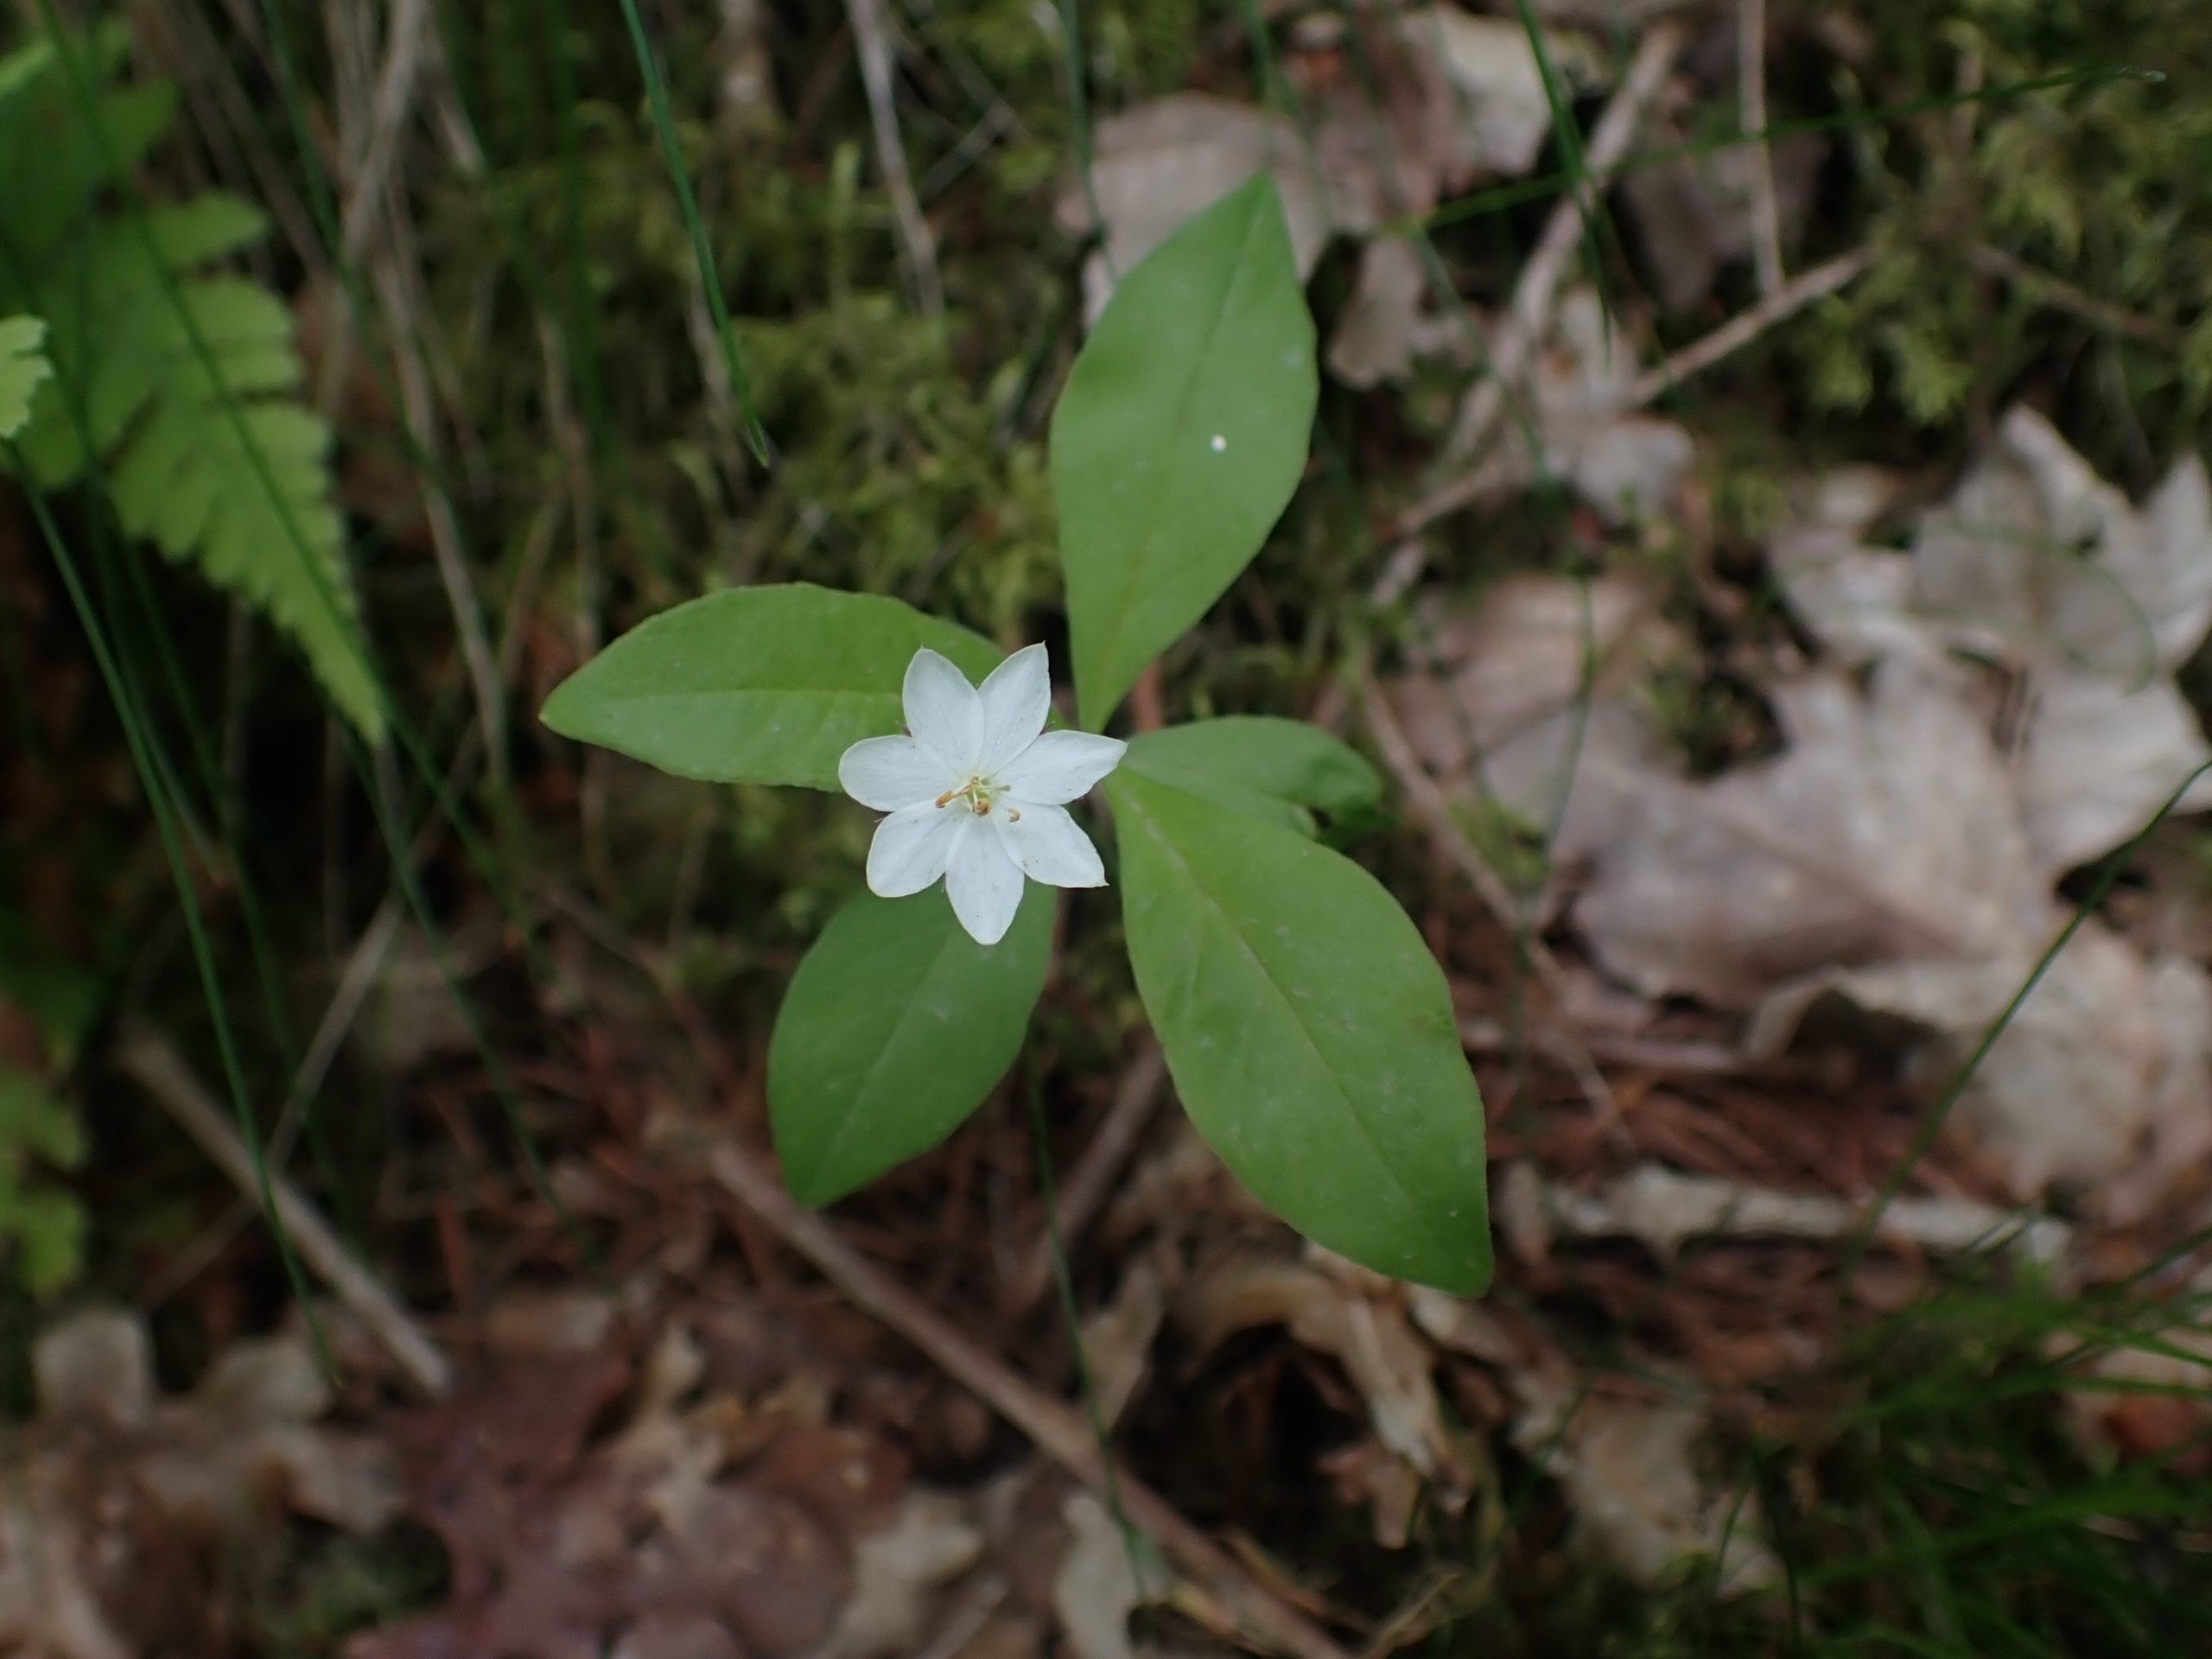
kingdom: Plantae
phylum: Tracheophyta
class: Magnoliopsida
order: Ericales
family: Primulaceae
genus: Lysimachia
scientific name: Lysimachia europaea
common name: Skovstjerne
